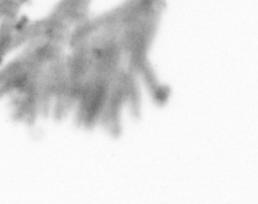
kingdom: Animalia
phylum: Chordata
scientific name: Chordata
